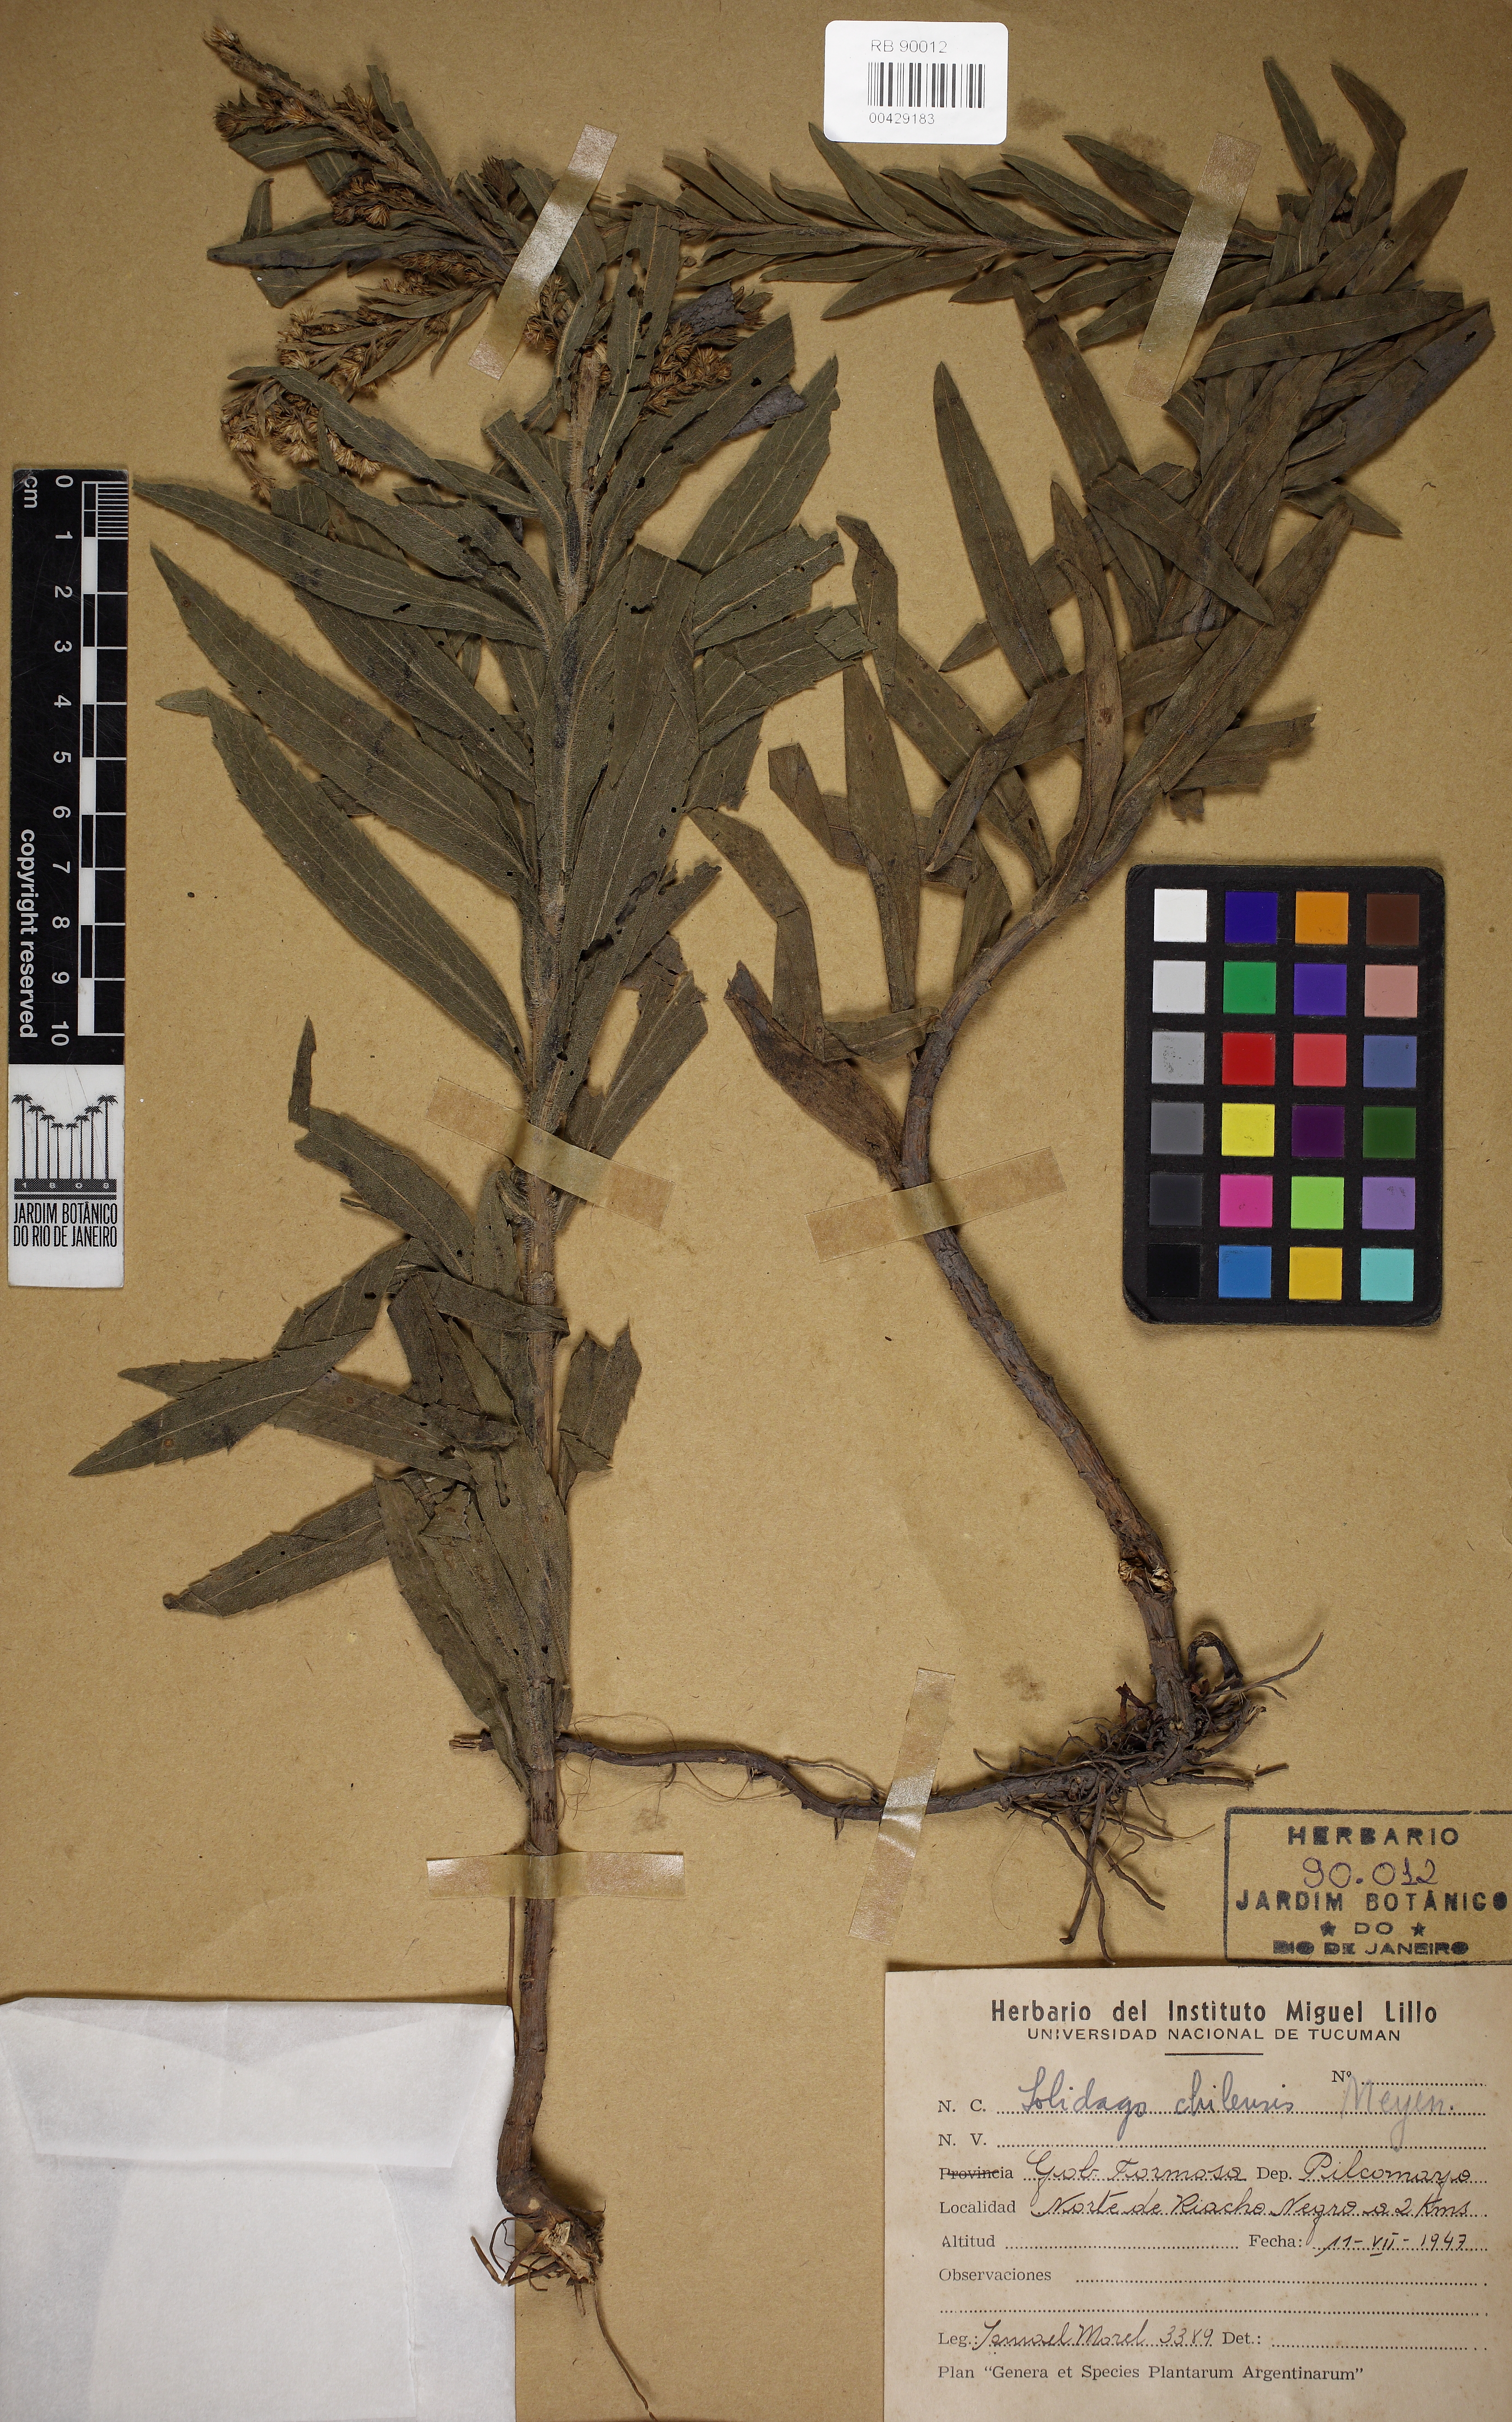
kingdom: Plantae
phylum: Tracheophyta
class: Magnoliopsida
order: Asterales
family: Asteraceae
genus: Solidago
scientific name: Solidago chilensis
